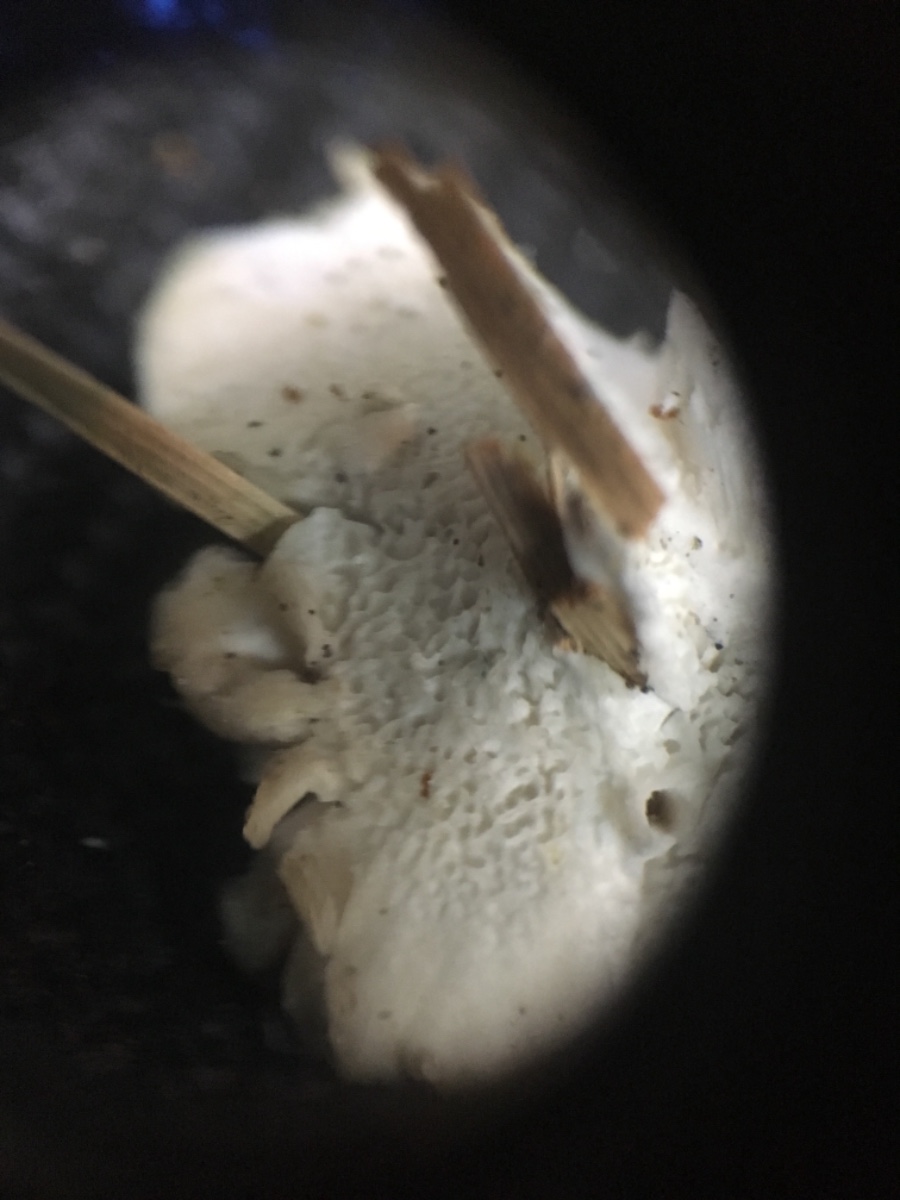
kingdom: Fungi
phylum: Basidiomycota
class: Agaricomycetes
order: Polyporales
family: Polyporaceae
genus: Cyanosporus
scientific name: Cyanosporus caesius
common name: blålig kødporesvamp
